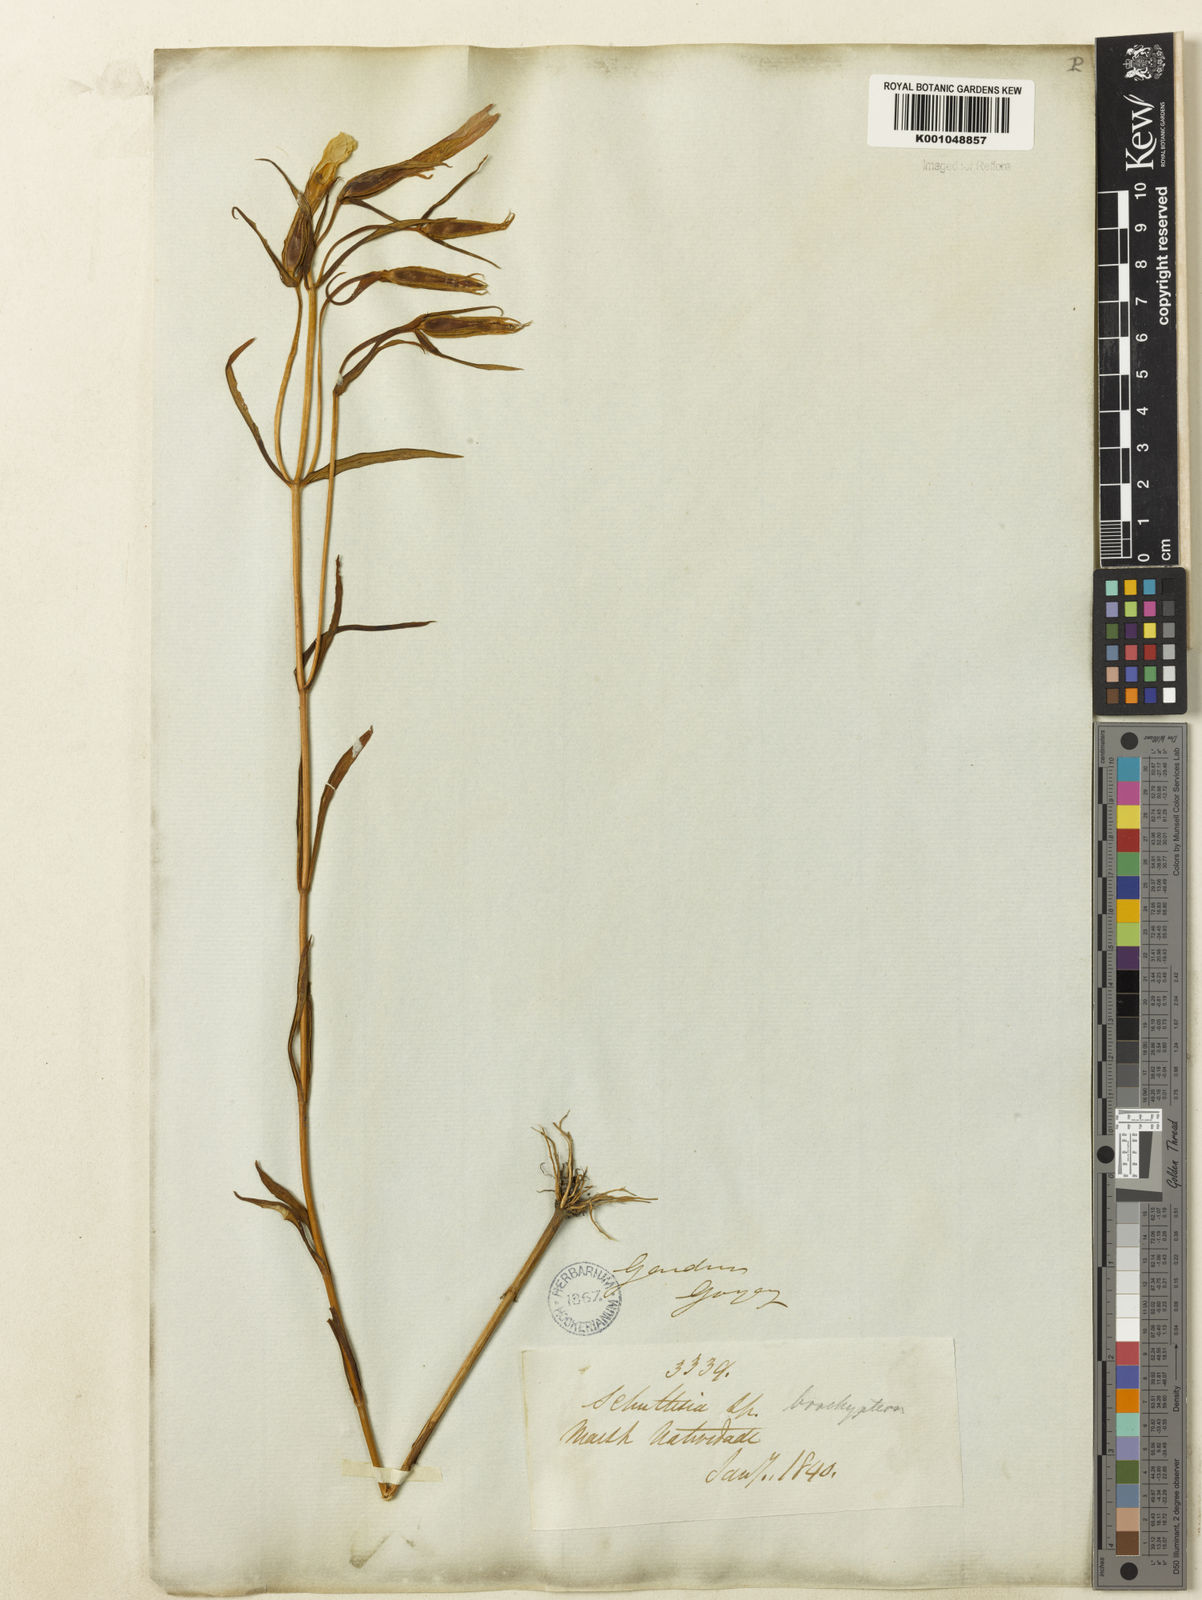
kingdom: Plantae
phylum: Tracheophyta
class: Magnoliopsida
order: Gentianales
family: Gentianaceae
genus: Schultesia
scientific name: Schultesia brachyptera
